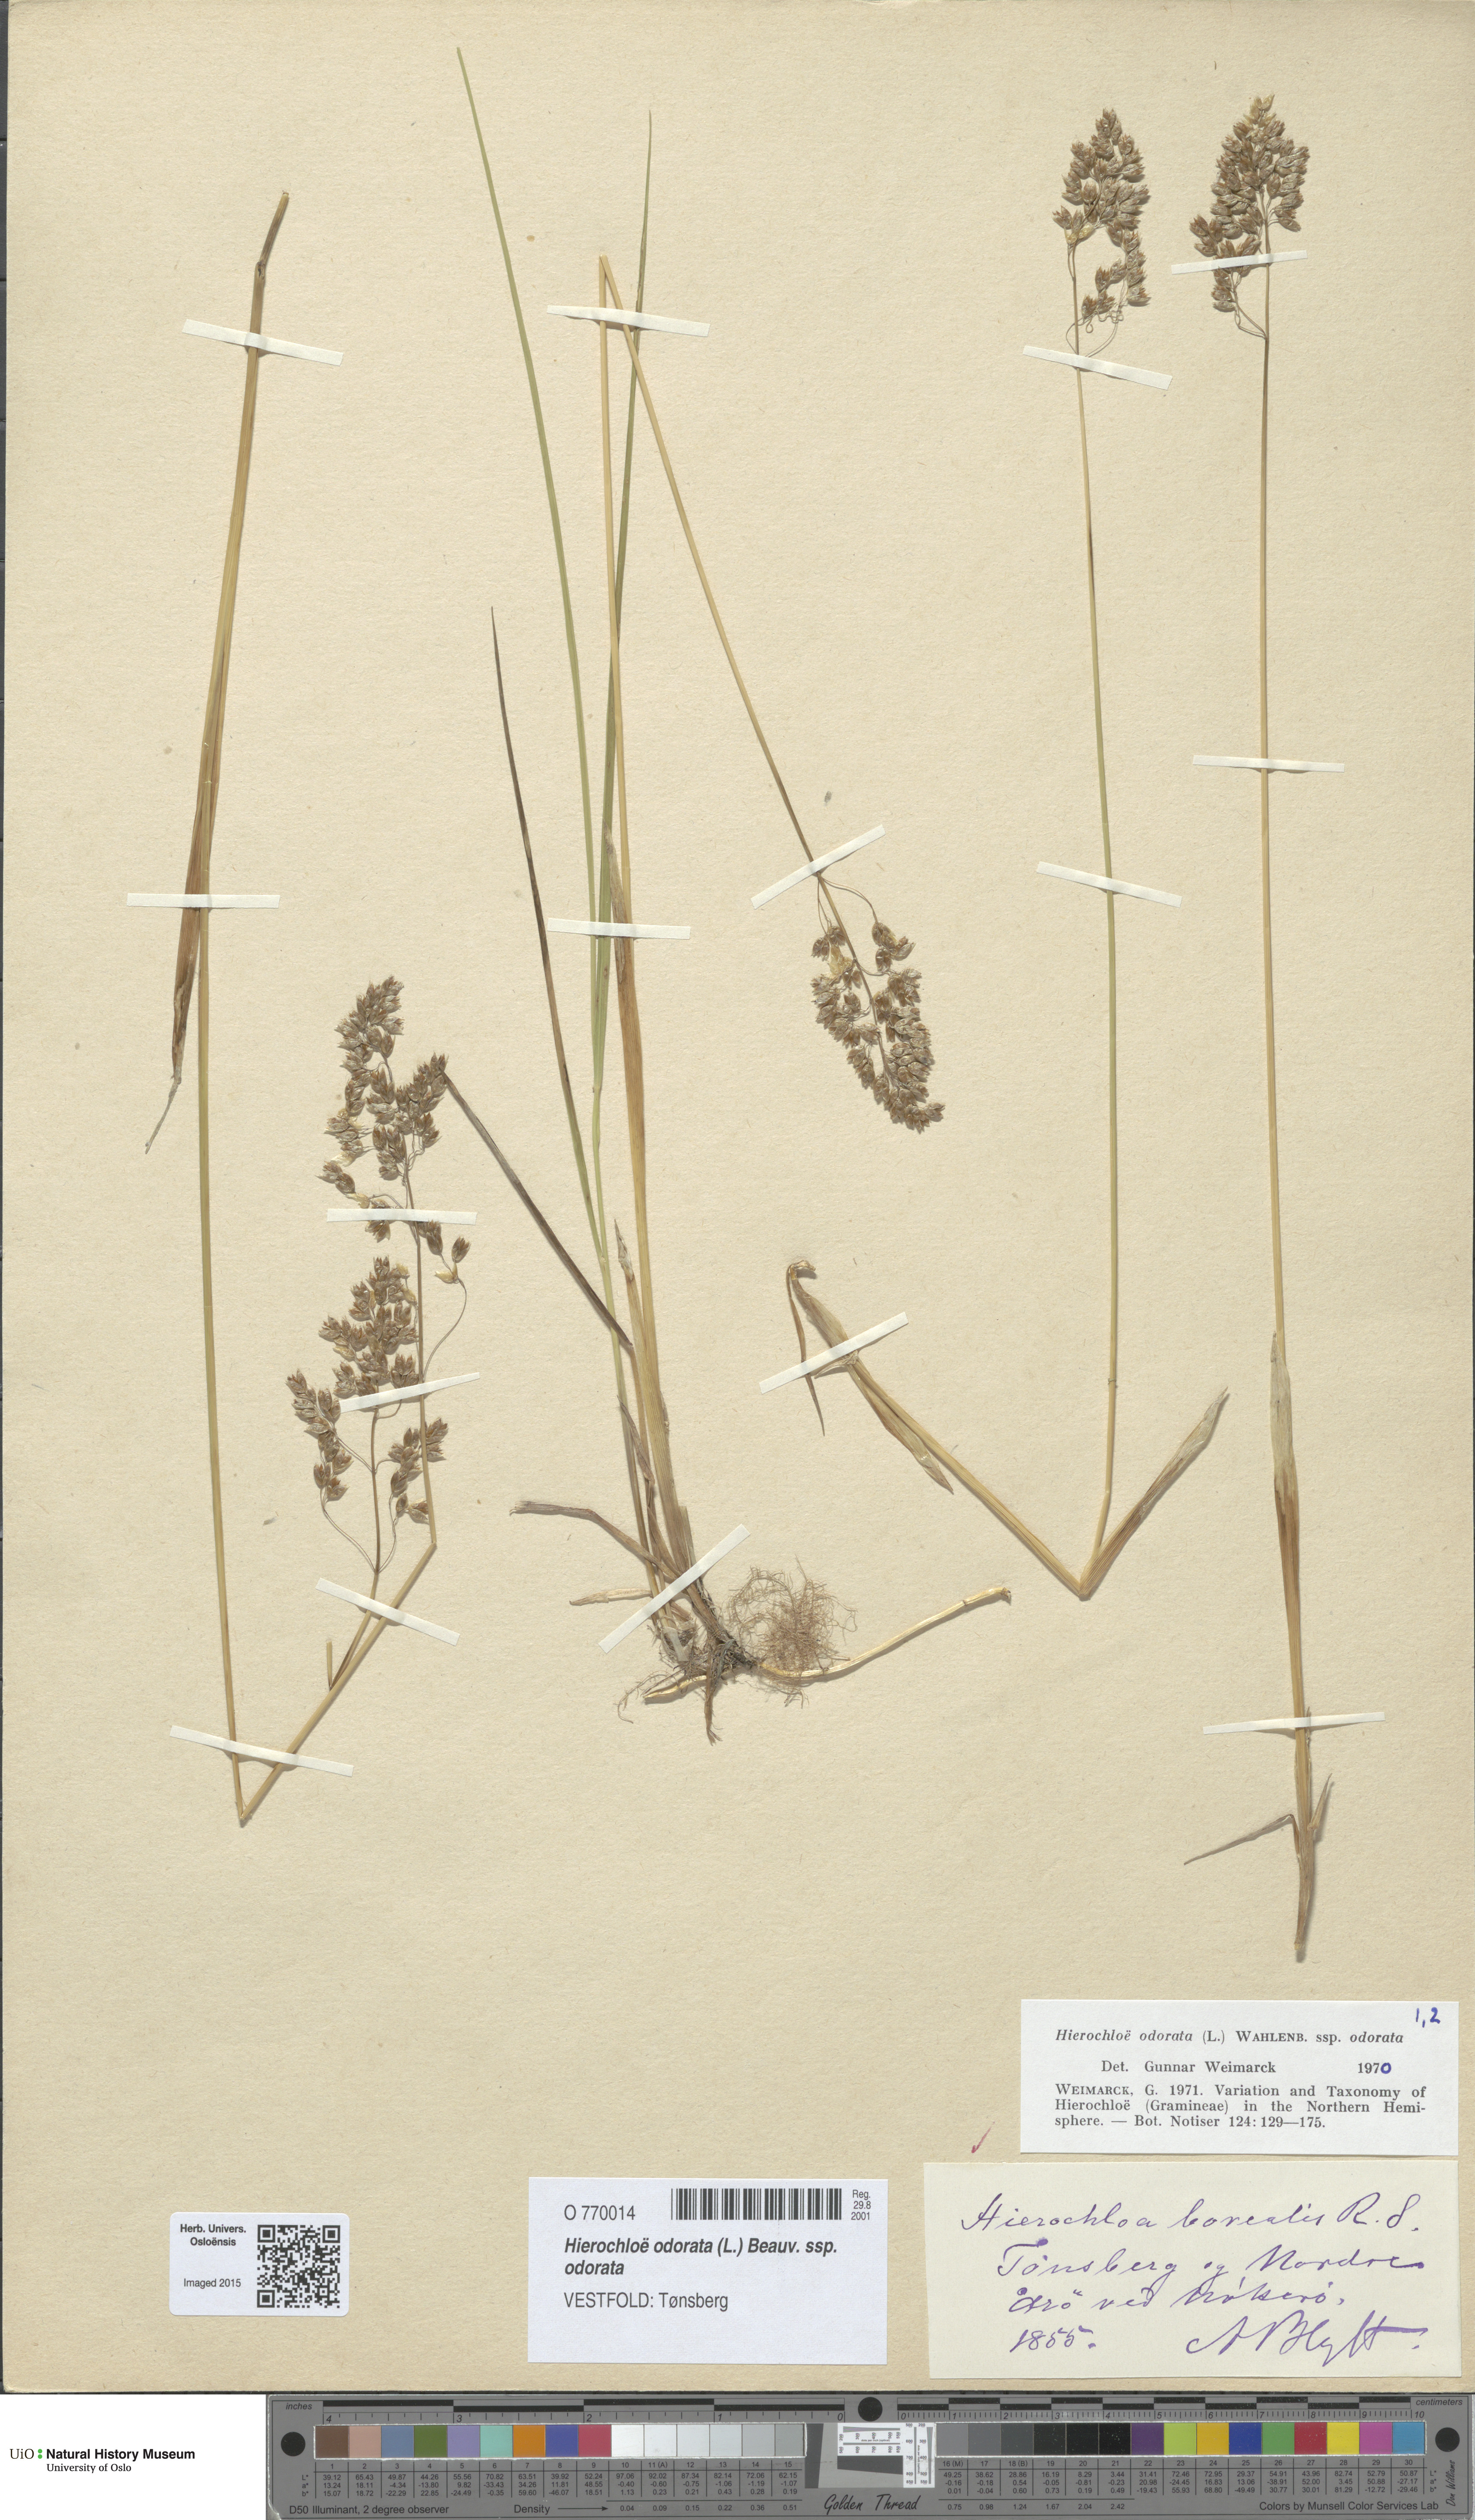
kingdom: Plantae
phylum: Tracheophyta
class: Liliopsida
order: Poales
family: Poaceae
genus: Anthoxanthum
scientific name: Anthoxanthum nitens
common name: Holy grass
